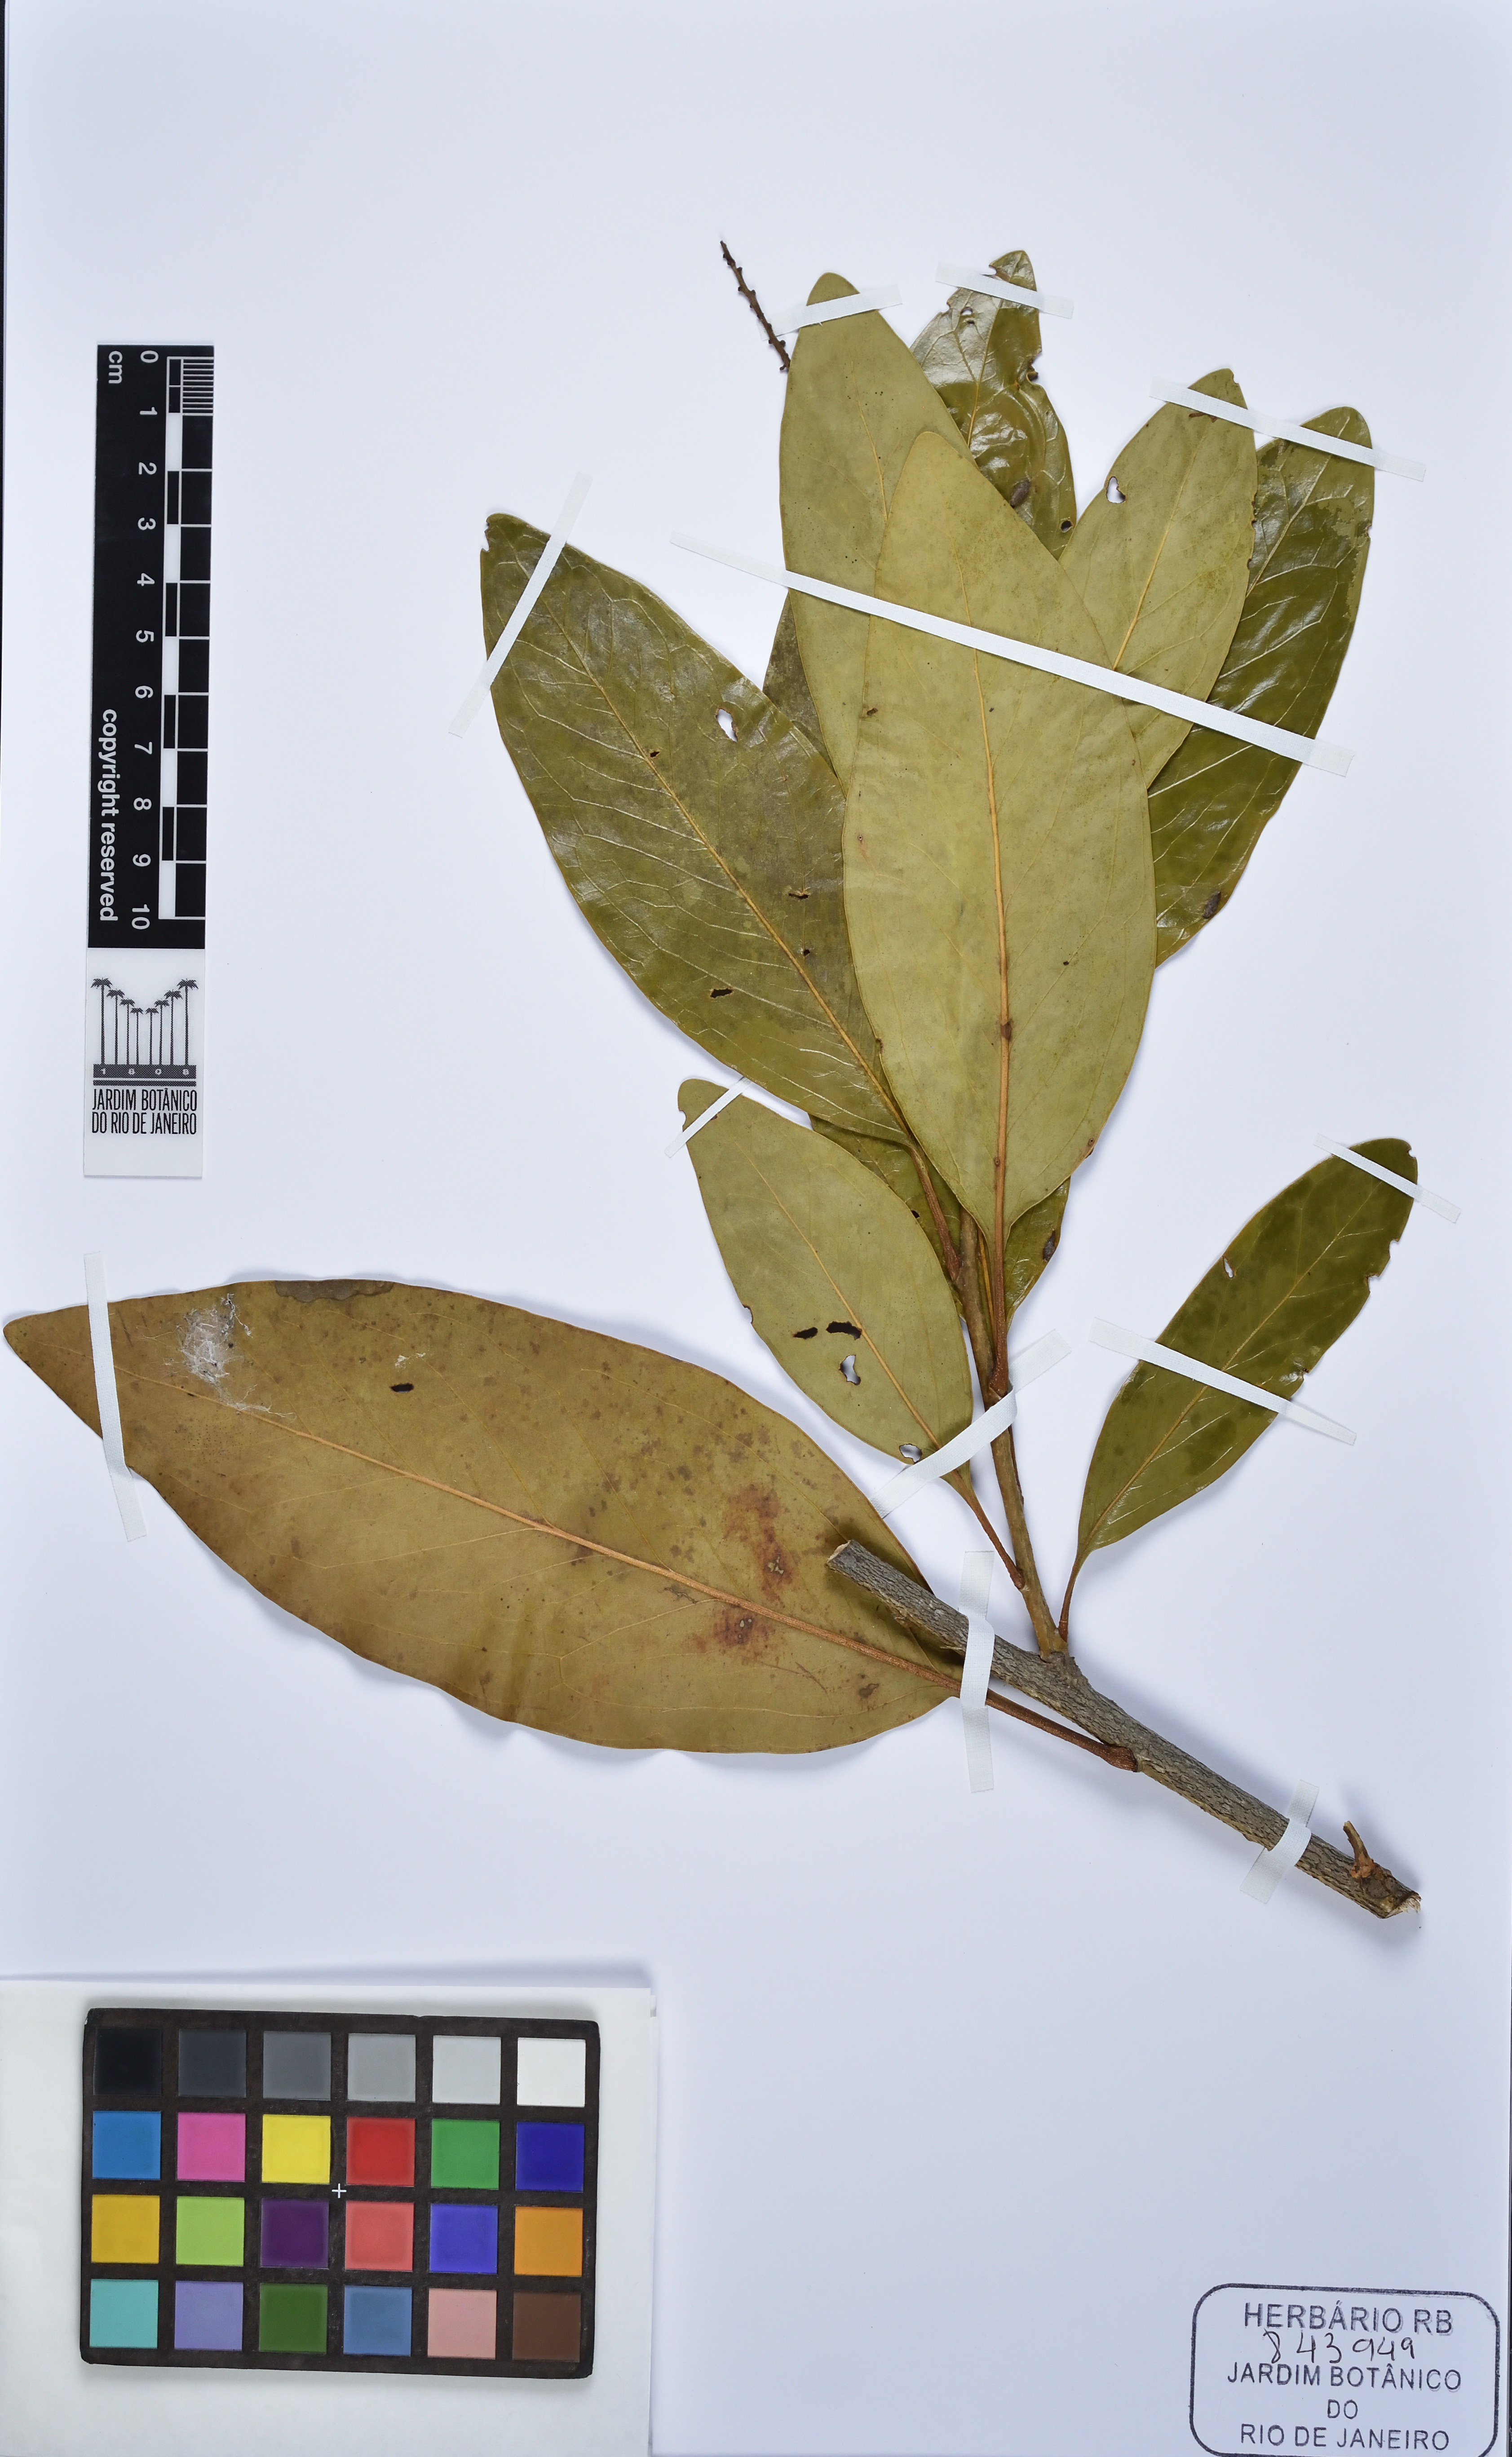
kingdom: Plantae
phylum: Tracheophyta
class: Magnoliopsida
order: Proteales
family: Proteaceae
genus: Roupala
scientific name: Roupala
